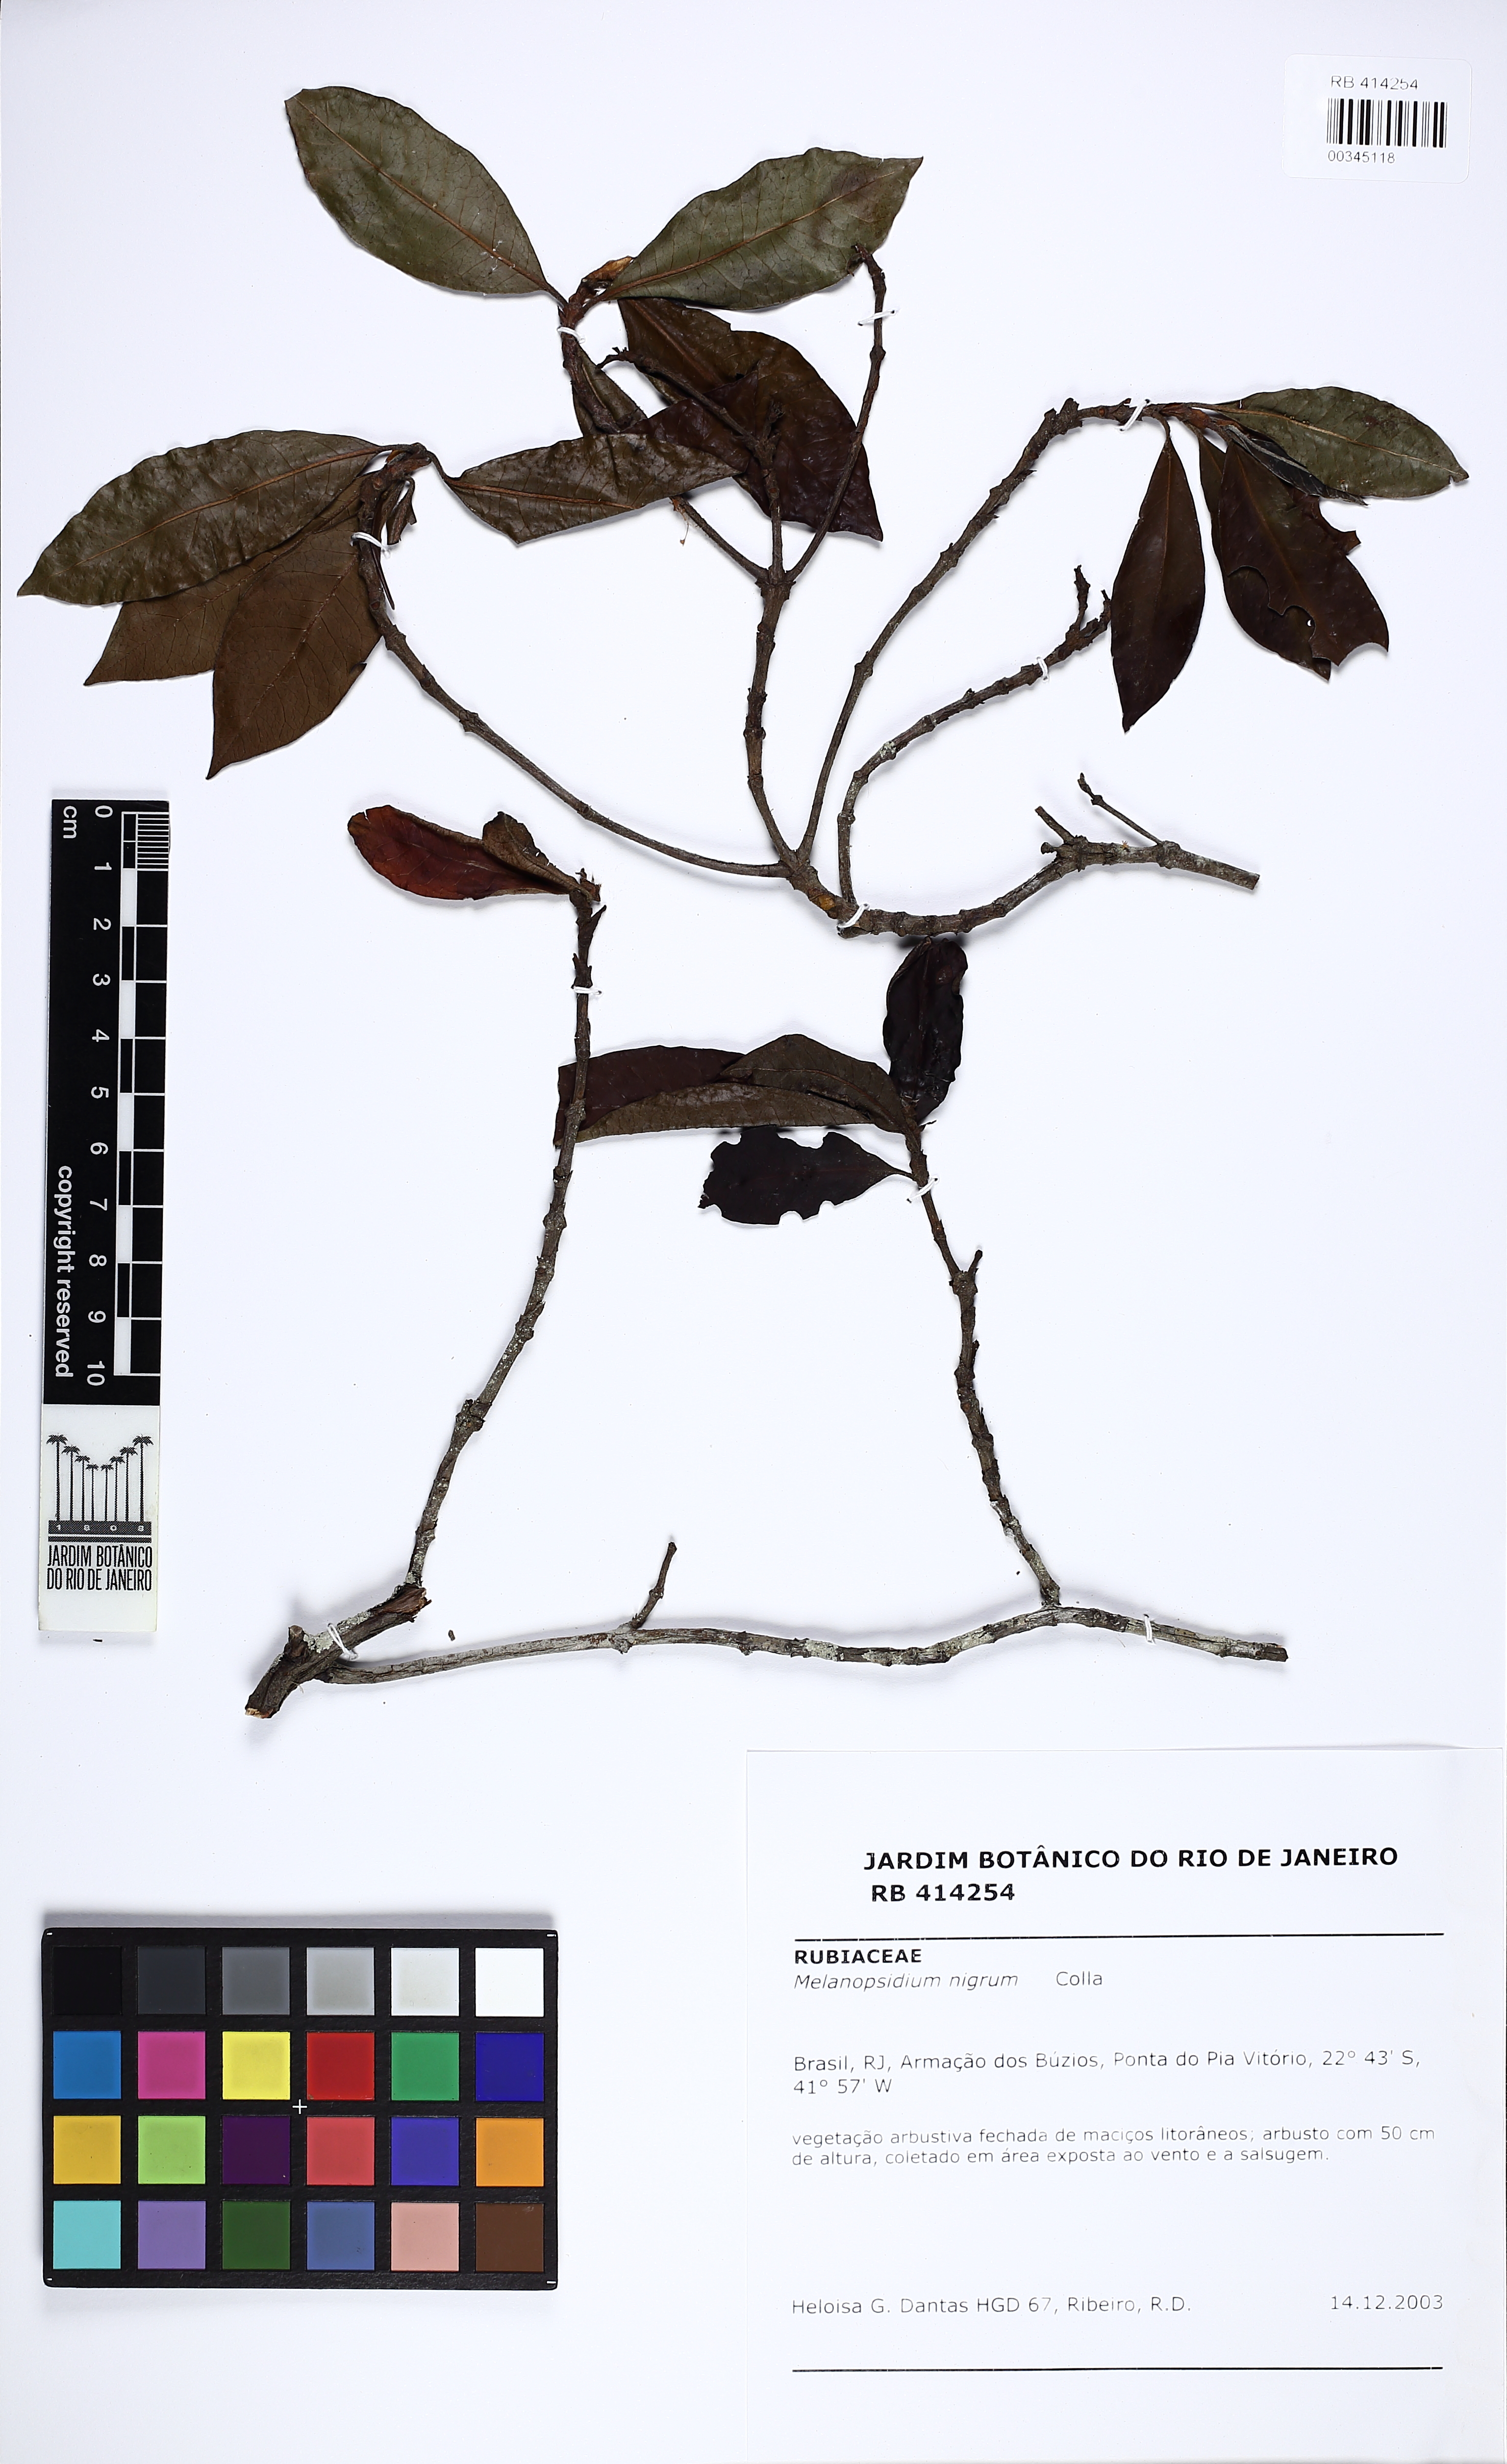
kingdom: Plantae
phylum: Tracheophyta
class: Magnoliopsida
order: Gentianales
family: Rubiaceae
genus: Melanopsidium
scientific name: Melanopsidium nigrum
